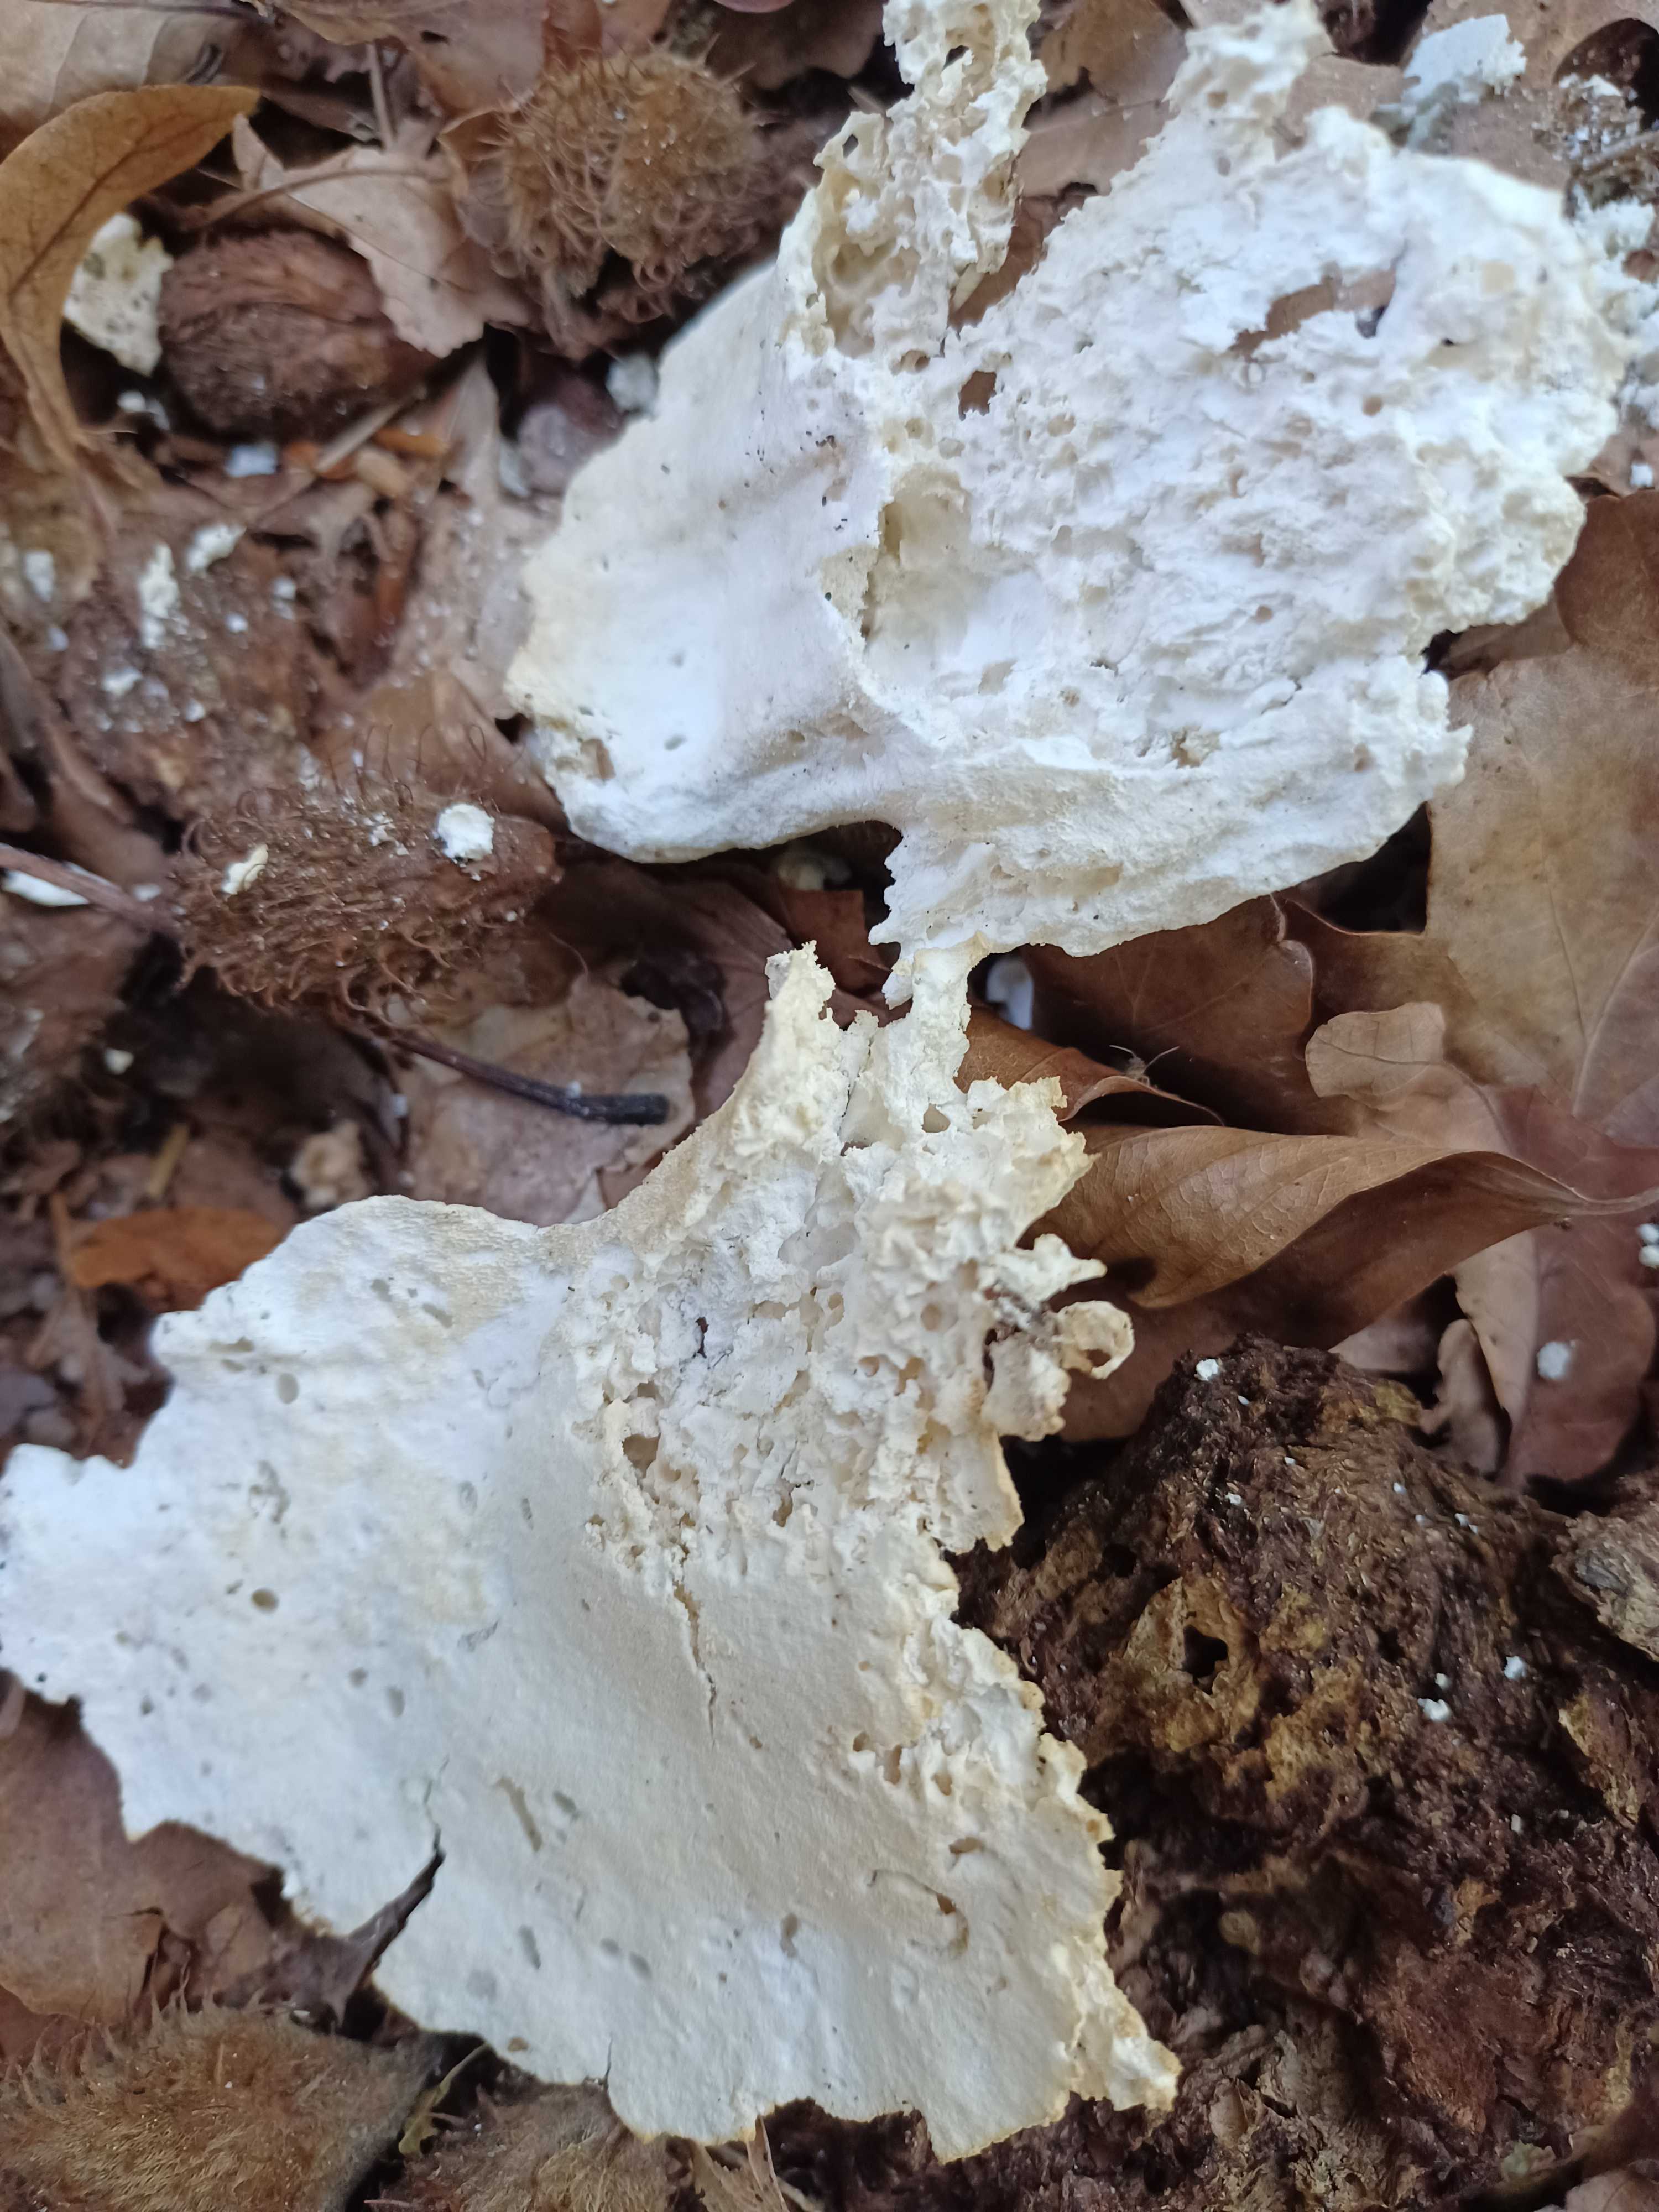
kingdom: Fungi
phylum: Basidiomycota
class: Agaricomycetes
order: Polyporales
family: Laetiporaceae
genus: Laetiporus
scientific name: Laetiporus sulphureus
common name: svovlporesvamp
